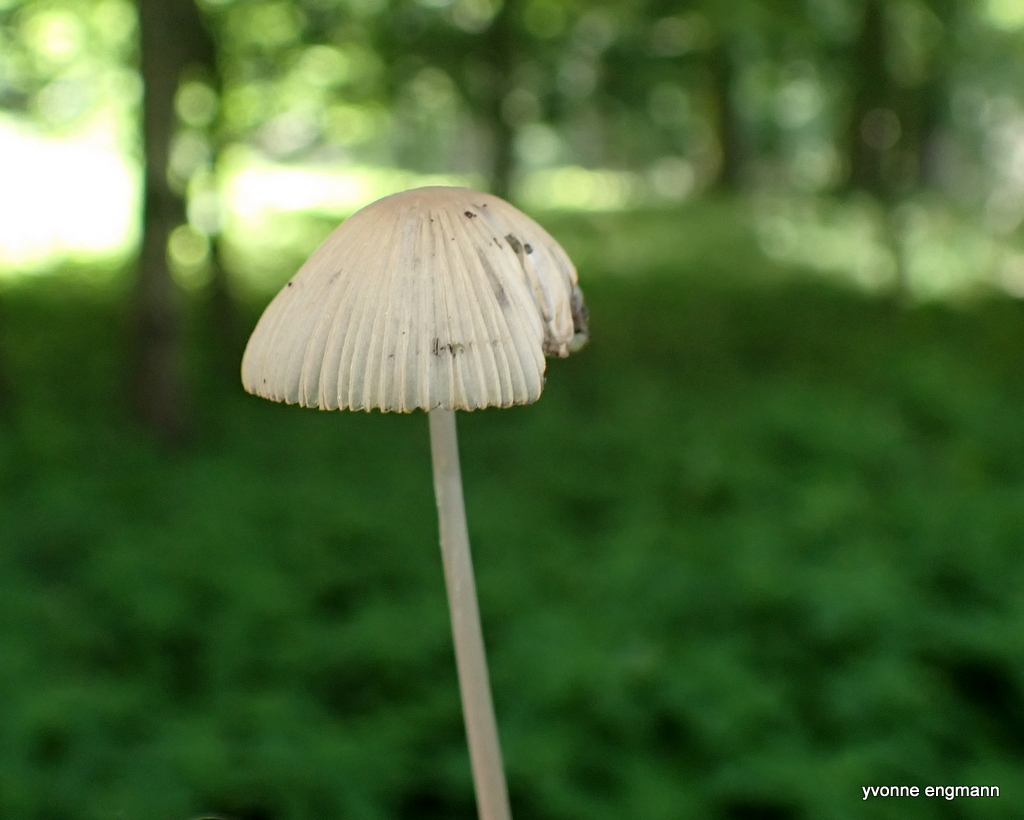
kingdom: Fungi
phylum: Basidiomycota
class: Agaricomycetes
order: Agaricales
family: Psathyrellaceae
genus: Parasola
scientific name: Parasola
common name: hjulhat
